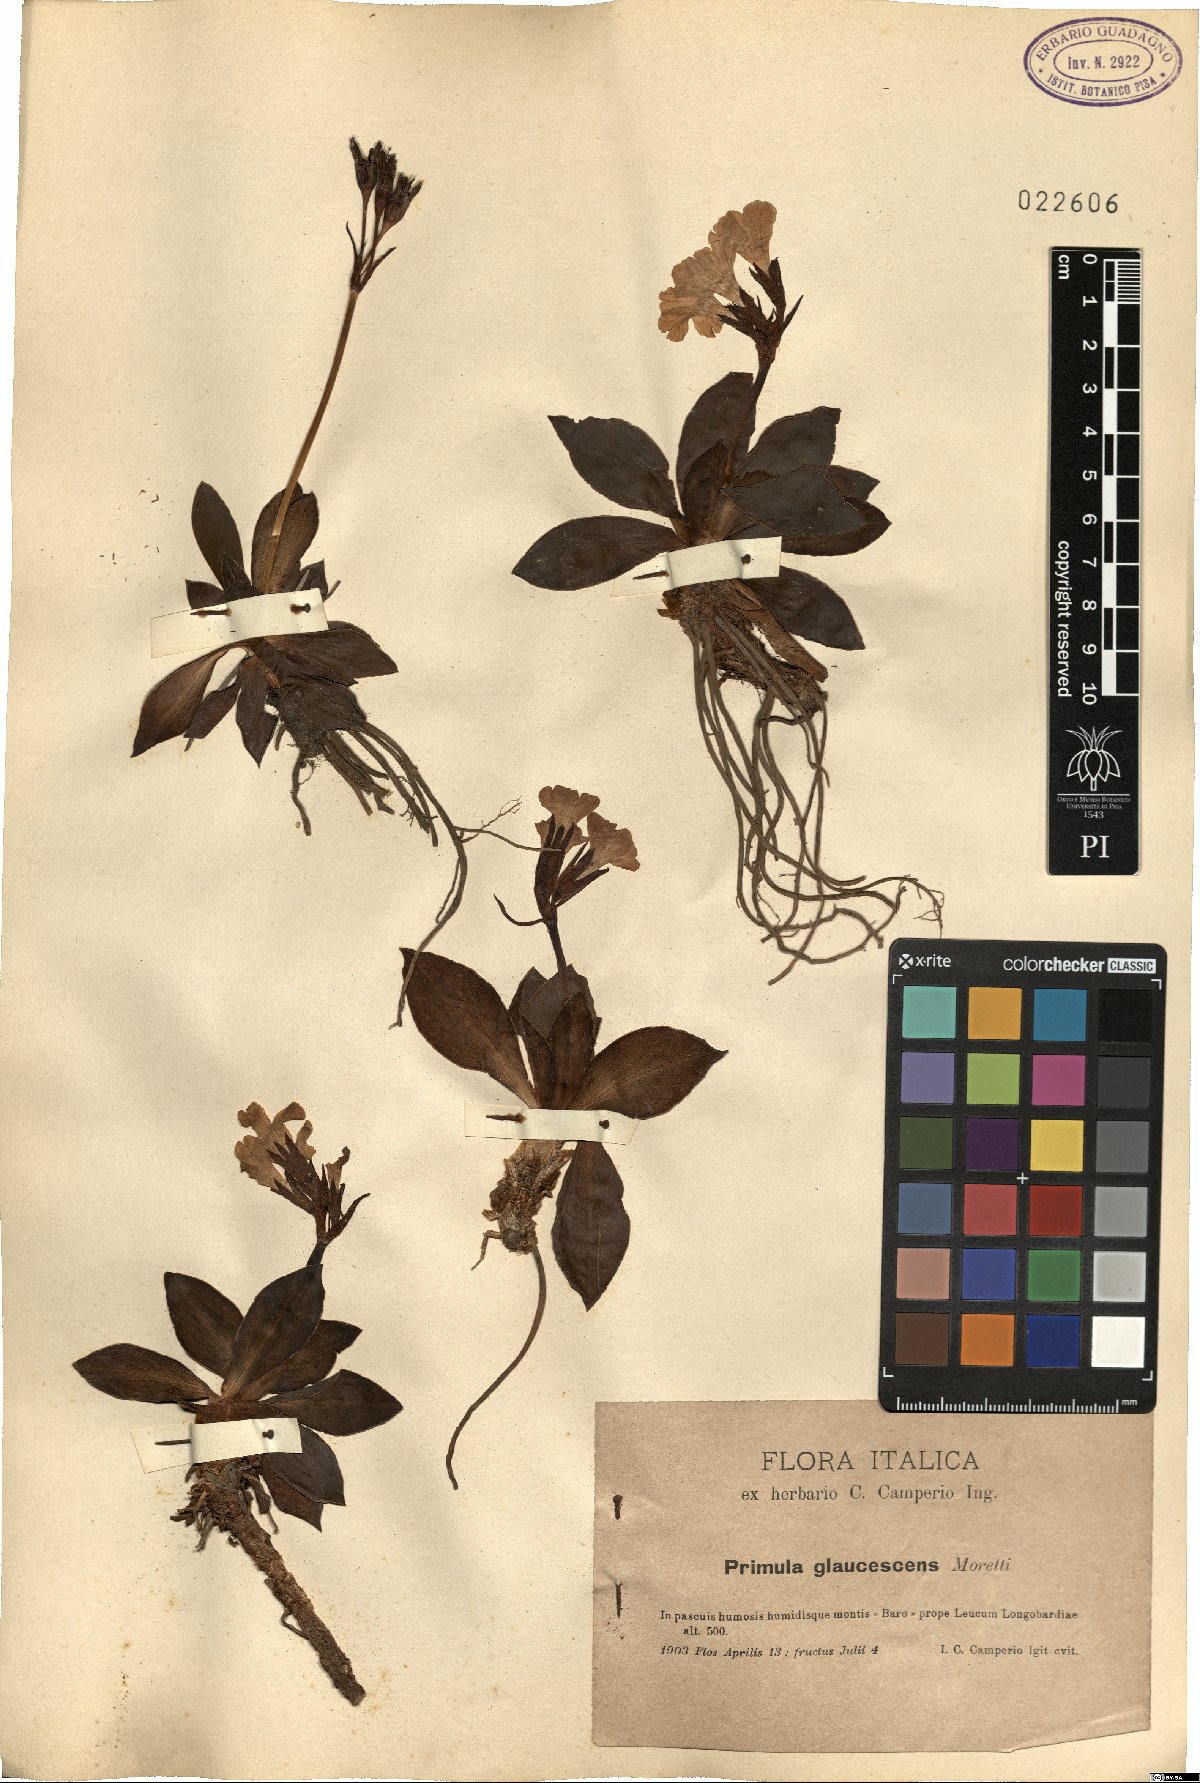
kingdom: Plantae
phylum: Tracheophyta
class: Magnoliopsida
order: Ericales
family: Primulaceae
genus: Primula
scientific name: Primula glaucescens
